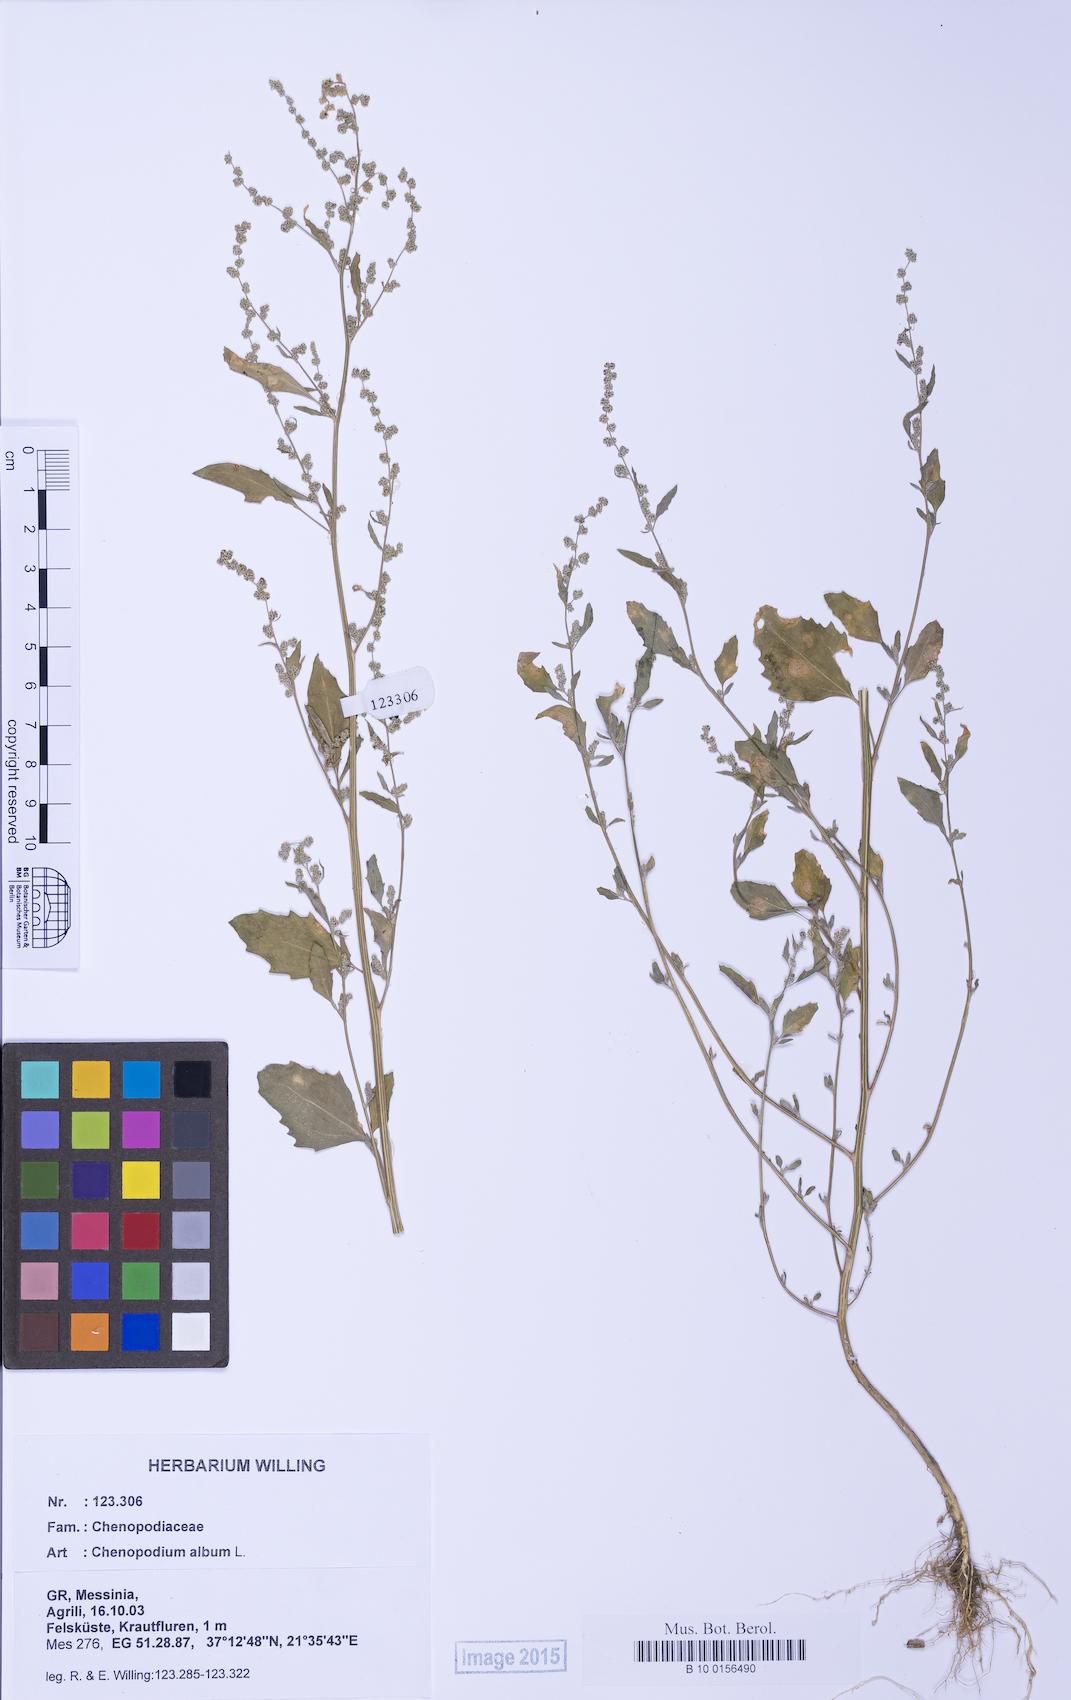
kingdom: Plantae
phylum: Tracheophyta
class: Magnoliopsida
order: Caryophyllales
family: Amaranthaceae
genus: Chenopodium
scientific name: Chenopodium album
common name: Fat-hen
